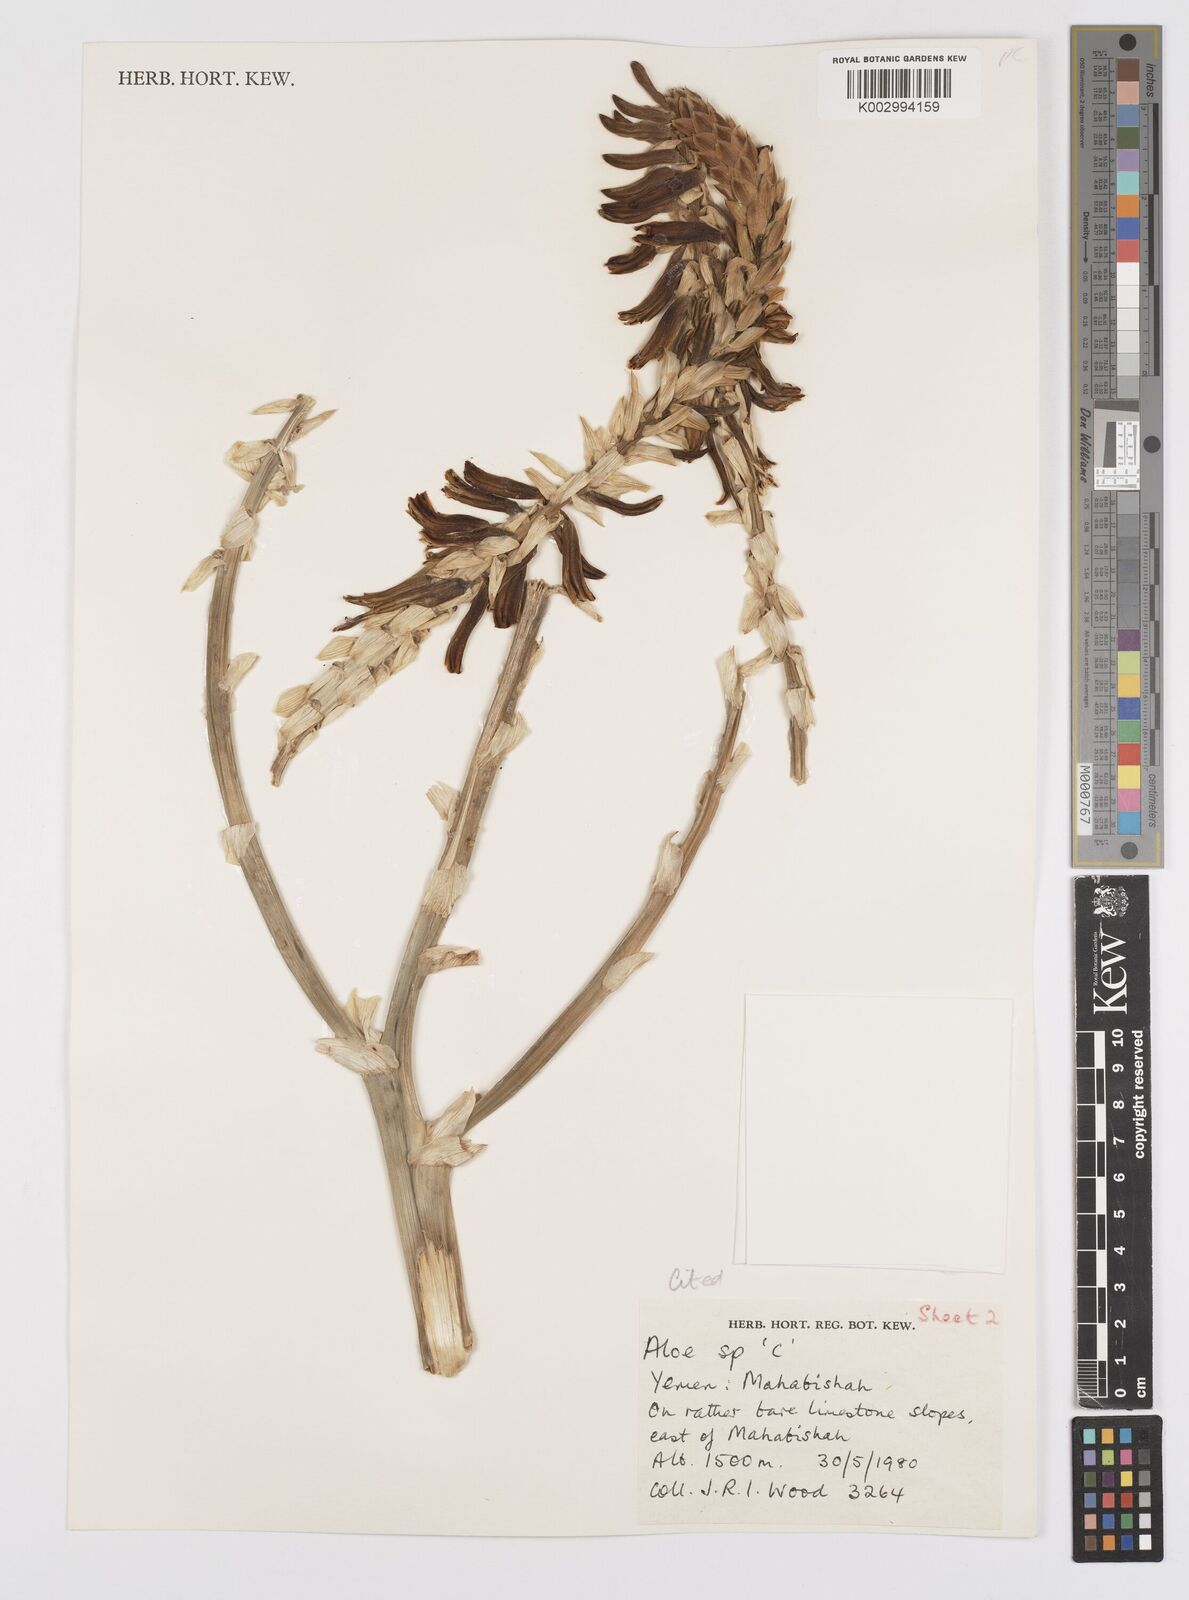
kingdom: Plantae
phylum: Tracheophyta
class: Liliopsida
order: Asparagales
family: Asphodelaceae
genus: Aloe
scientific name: Aloe
